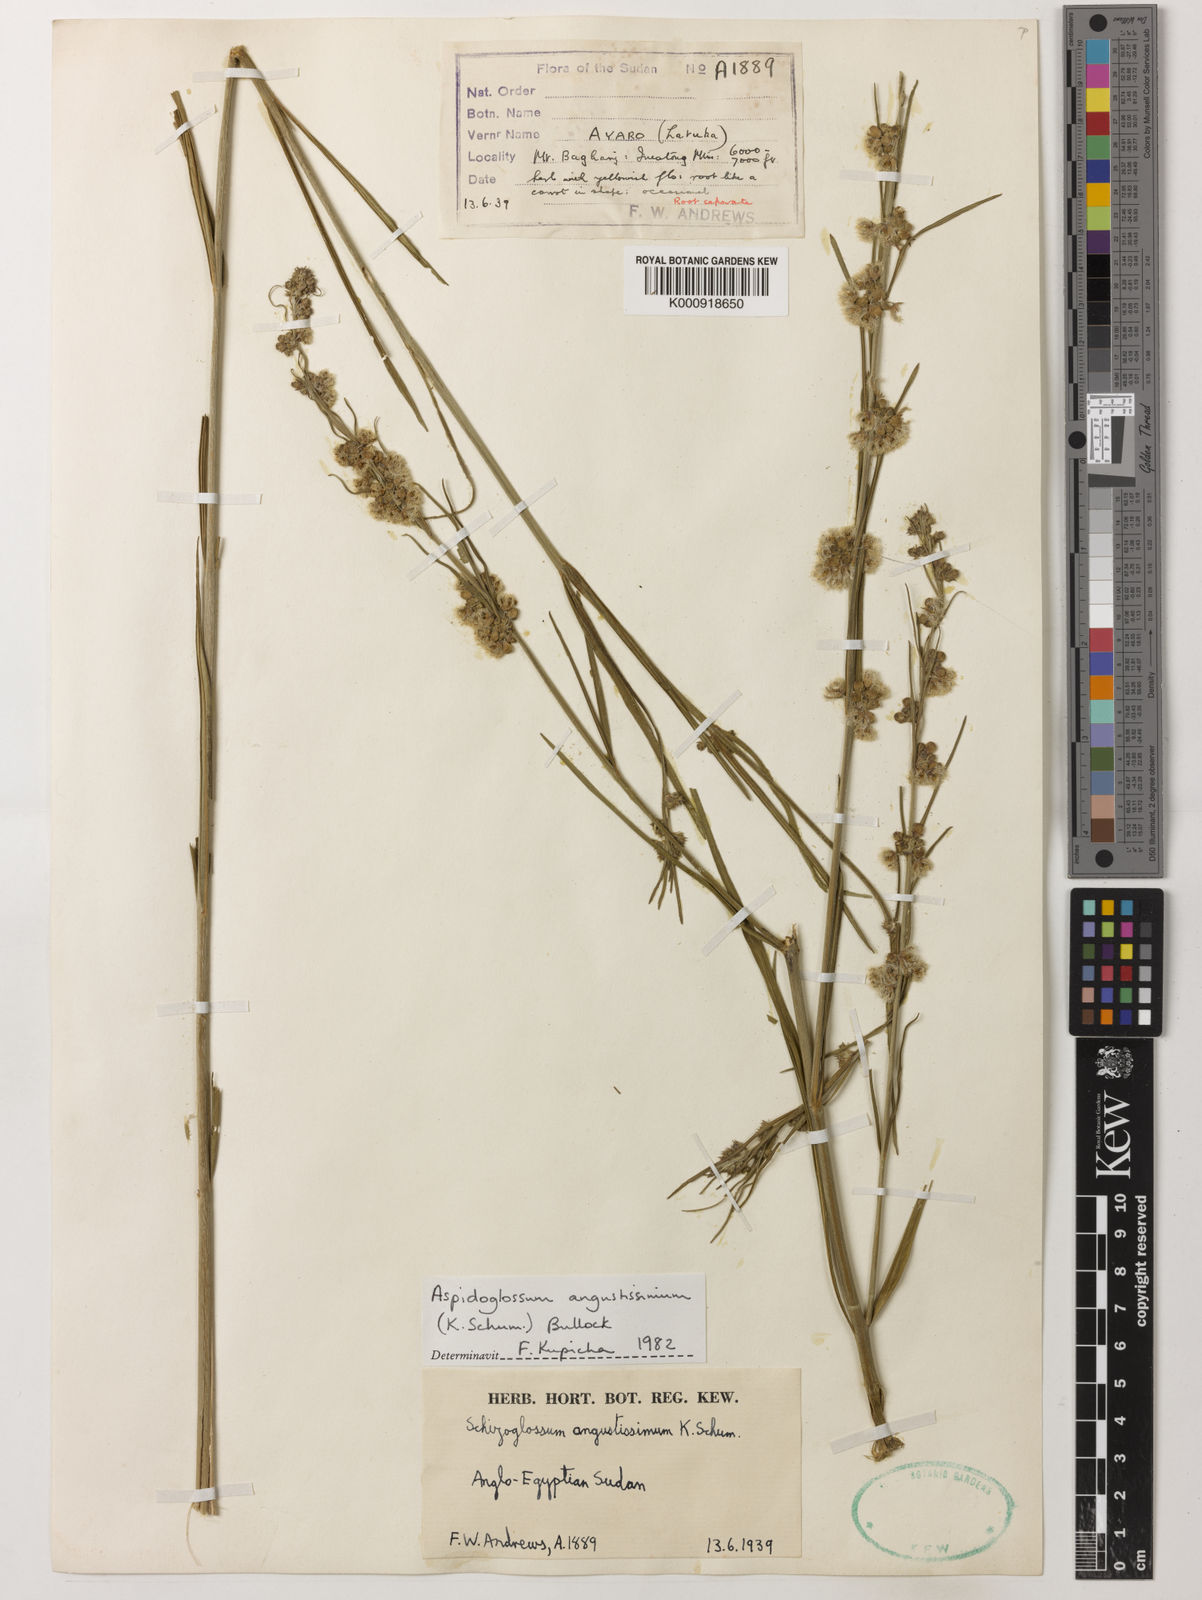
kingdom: Plantae
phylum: Tracheophyta
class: Magnoliopsida
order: Gentianales
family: Apocynaceae
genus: Aspidoglossum
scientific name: Aspidoglossum angustissimum
